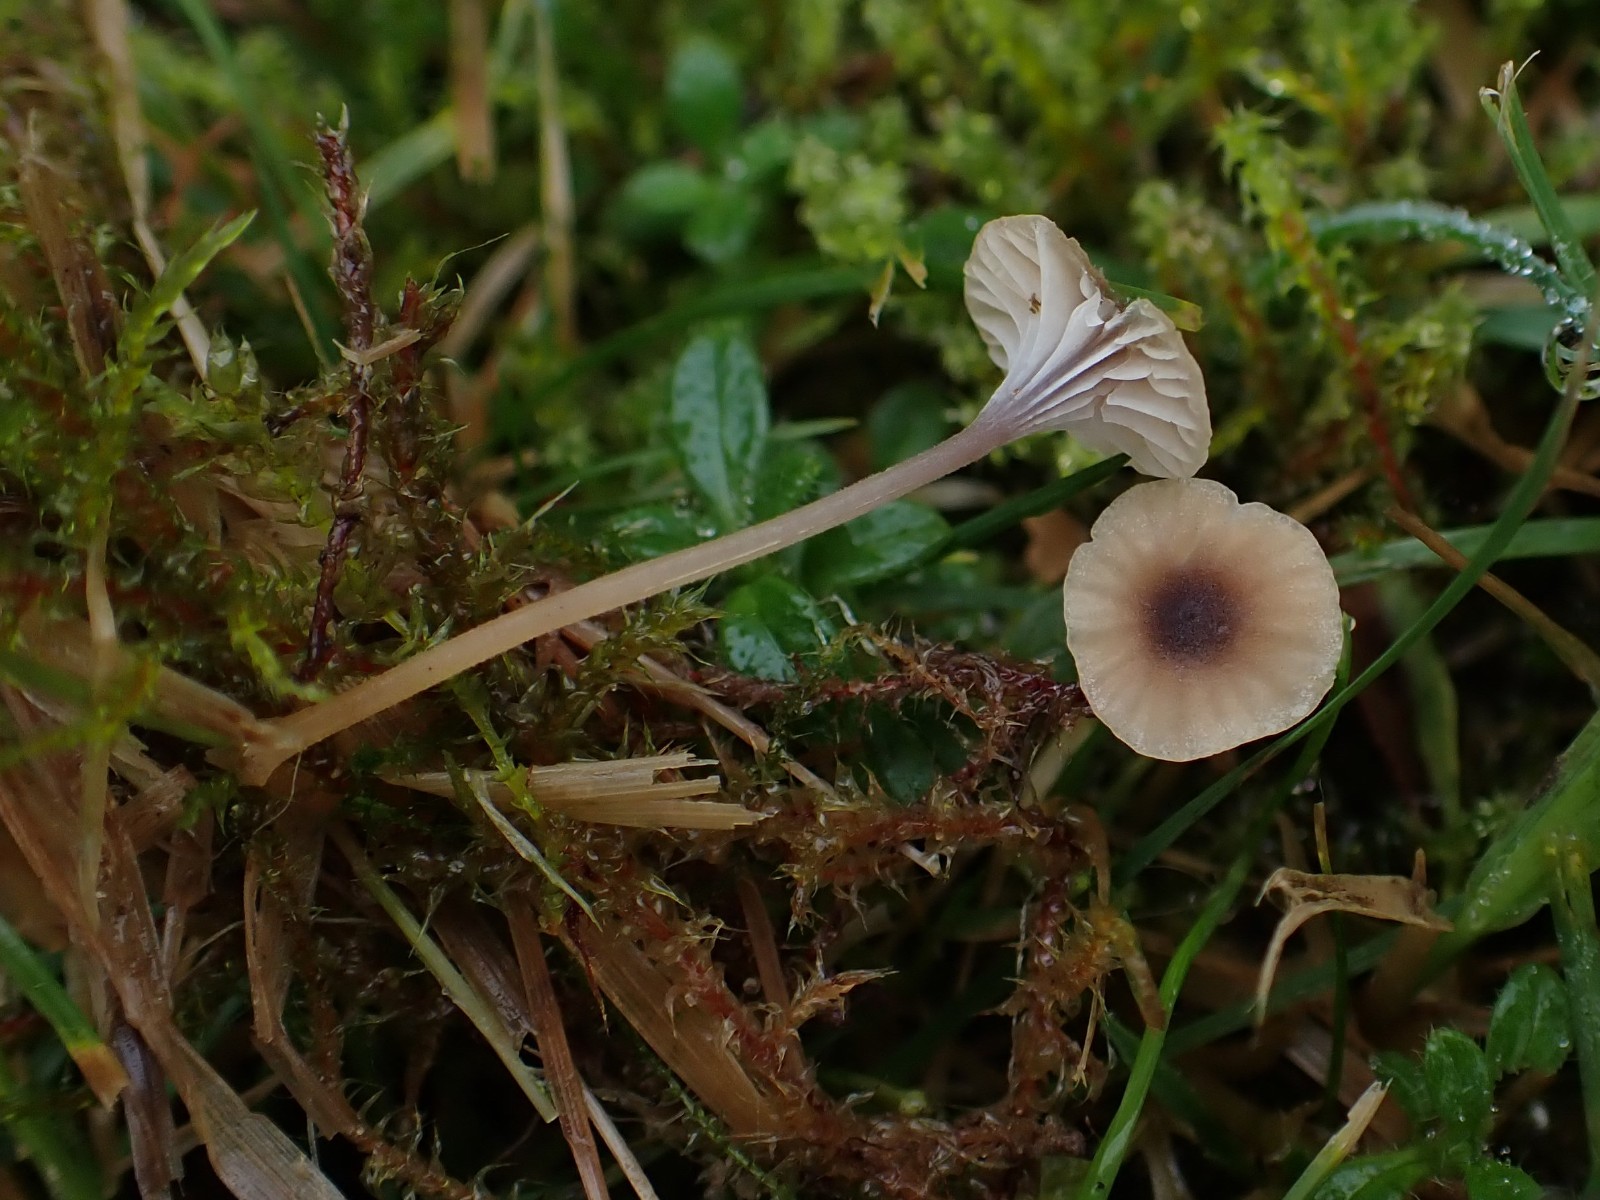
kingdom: Fungi
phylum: Basidiomycota
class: Agaricomycetes
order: Hymenochaetales
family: Rickenellaceae
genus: Rickenella
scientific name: Rickenella swartzii
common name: finstokket mosnavlehat
